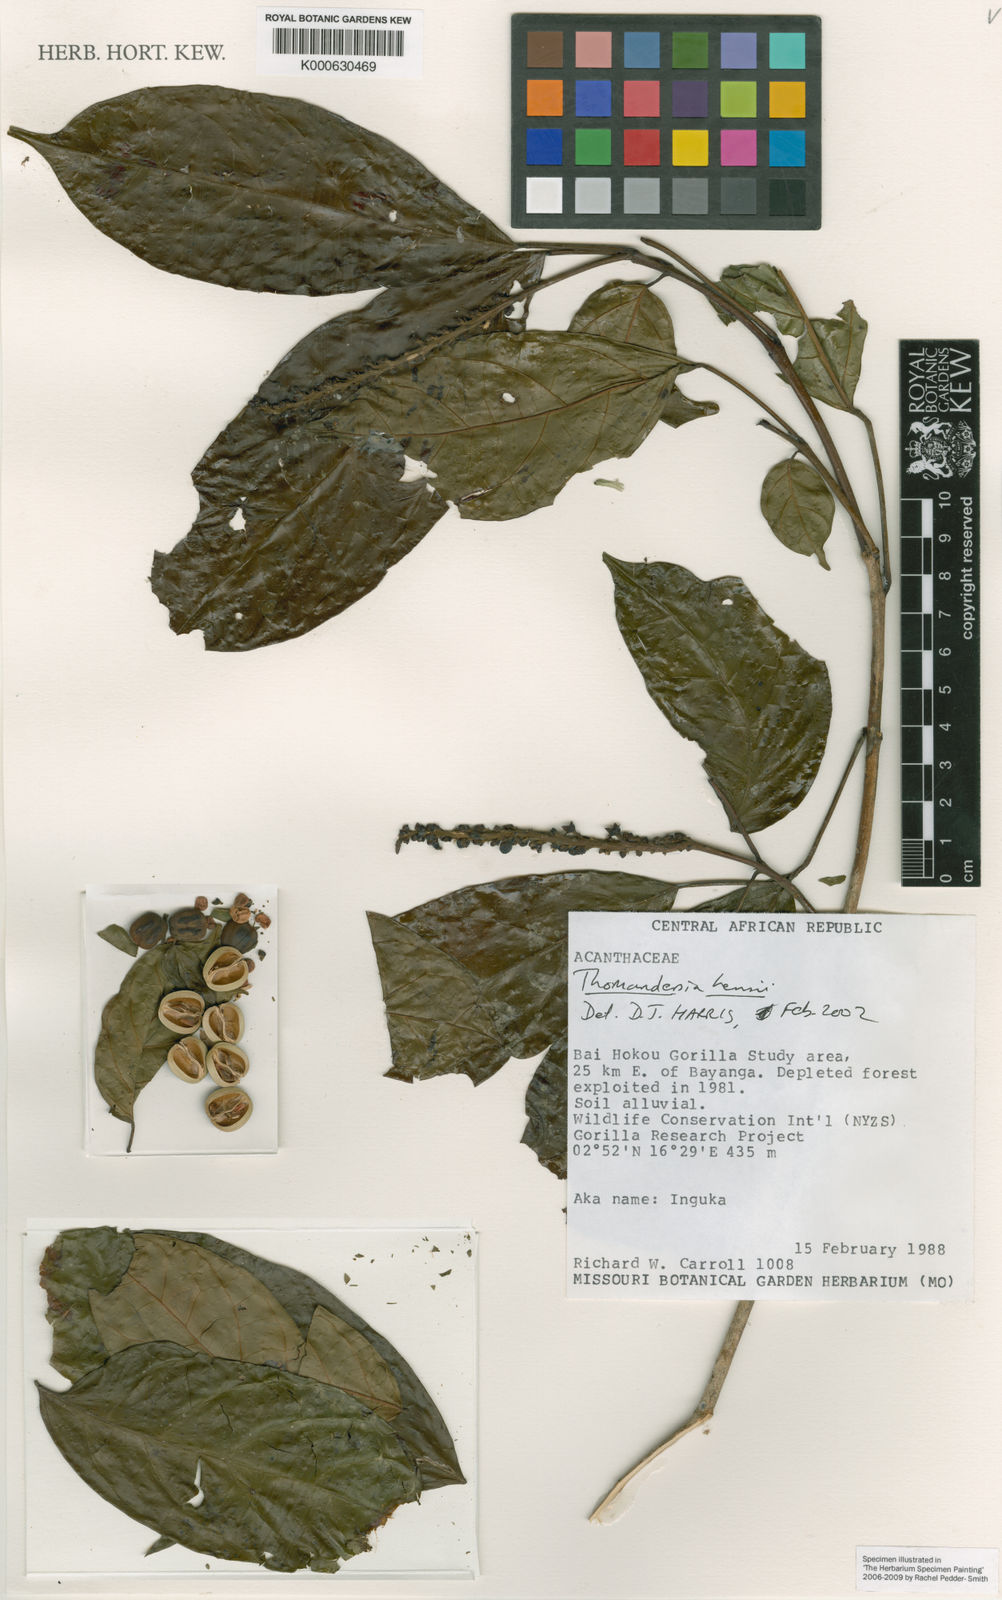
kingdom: Plantae
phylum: Tracheophyta
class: Magnoliopsida
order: Lamiales
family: Thomandersiaceae
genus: Thomandersia
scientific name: Thomandersia hensii
